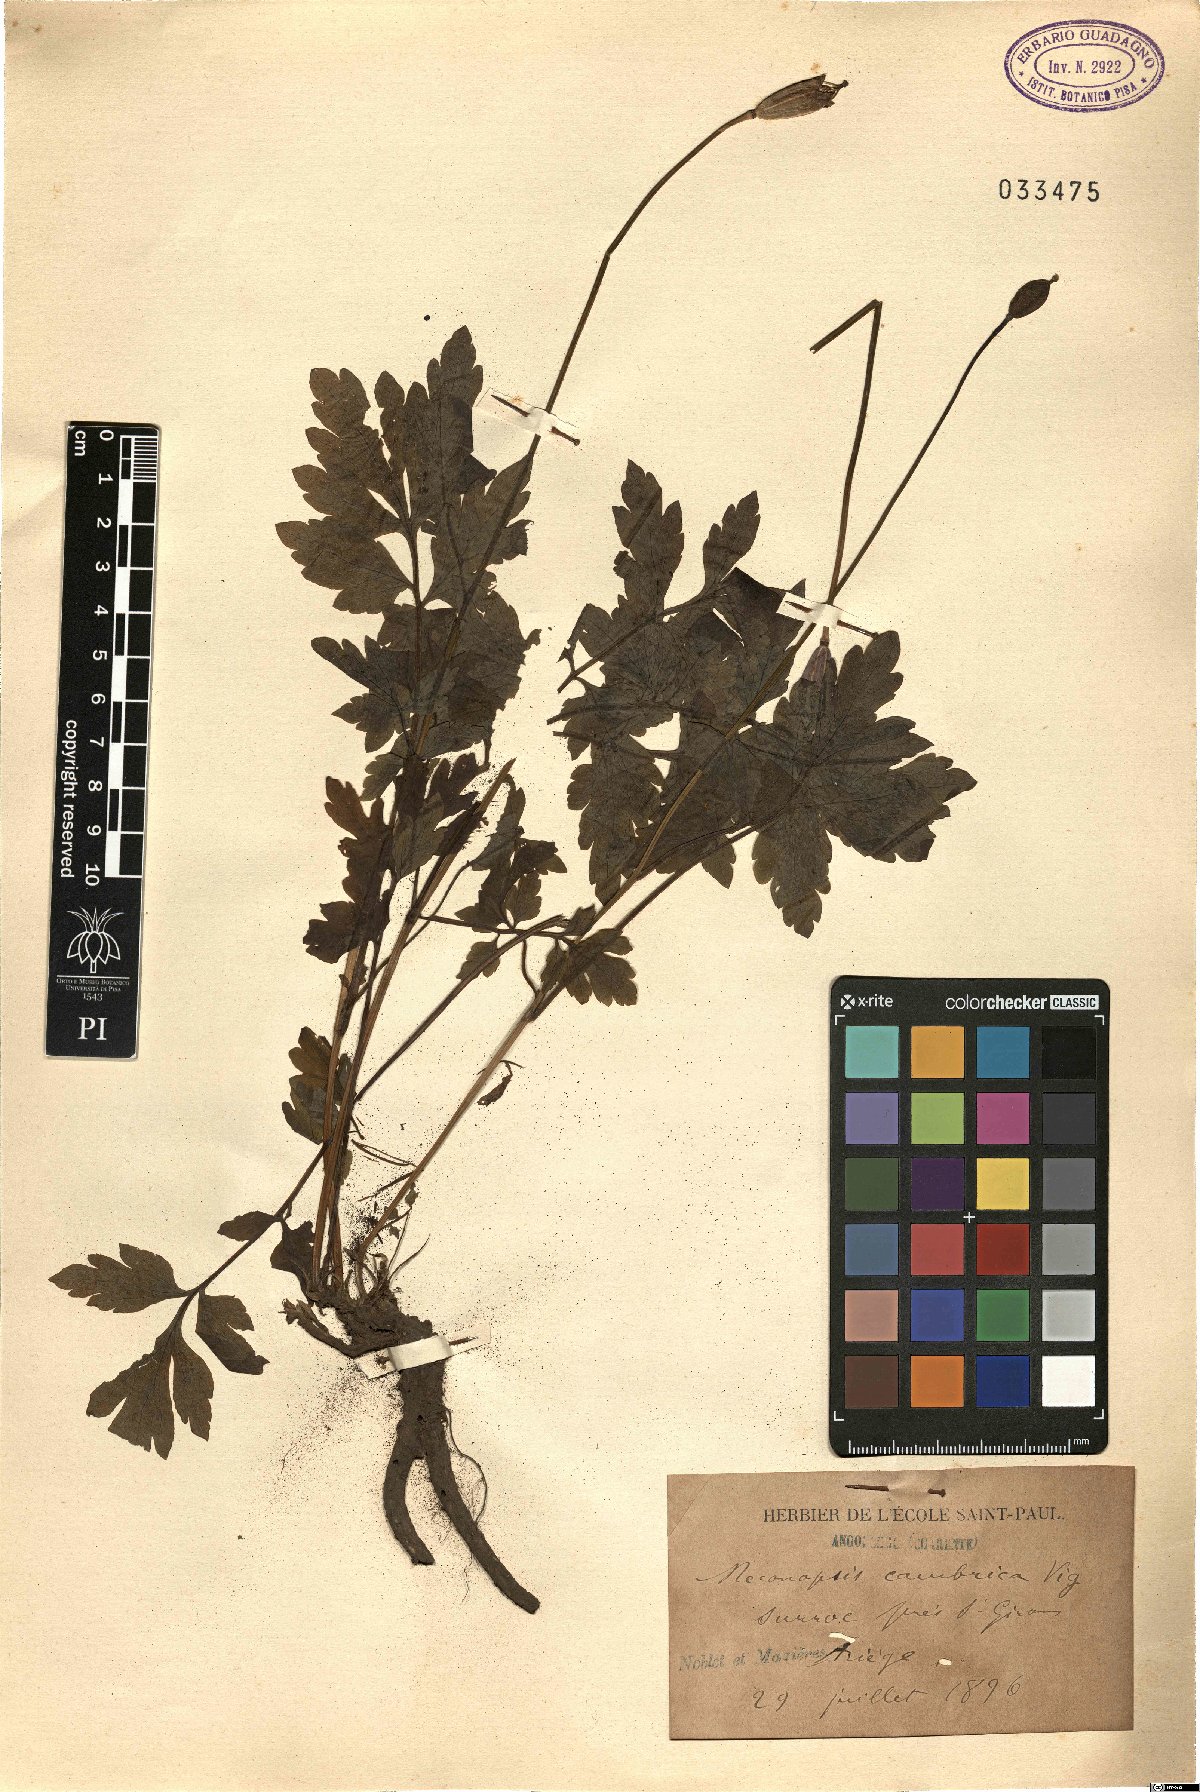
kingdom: Plantae
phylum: Tracheophyta
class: Magnoliopsida
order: Ranunculales
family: Papaveraceae
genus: Papaver
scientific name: Papaver cambricum
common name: Poppy
